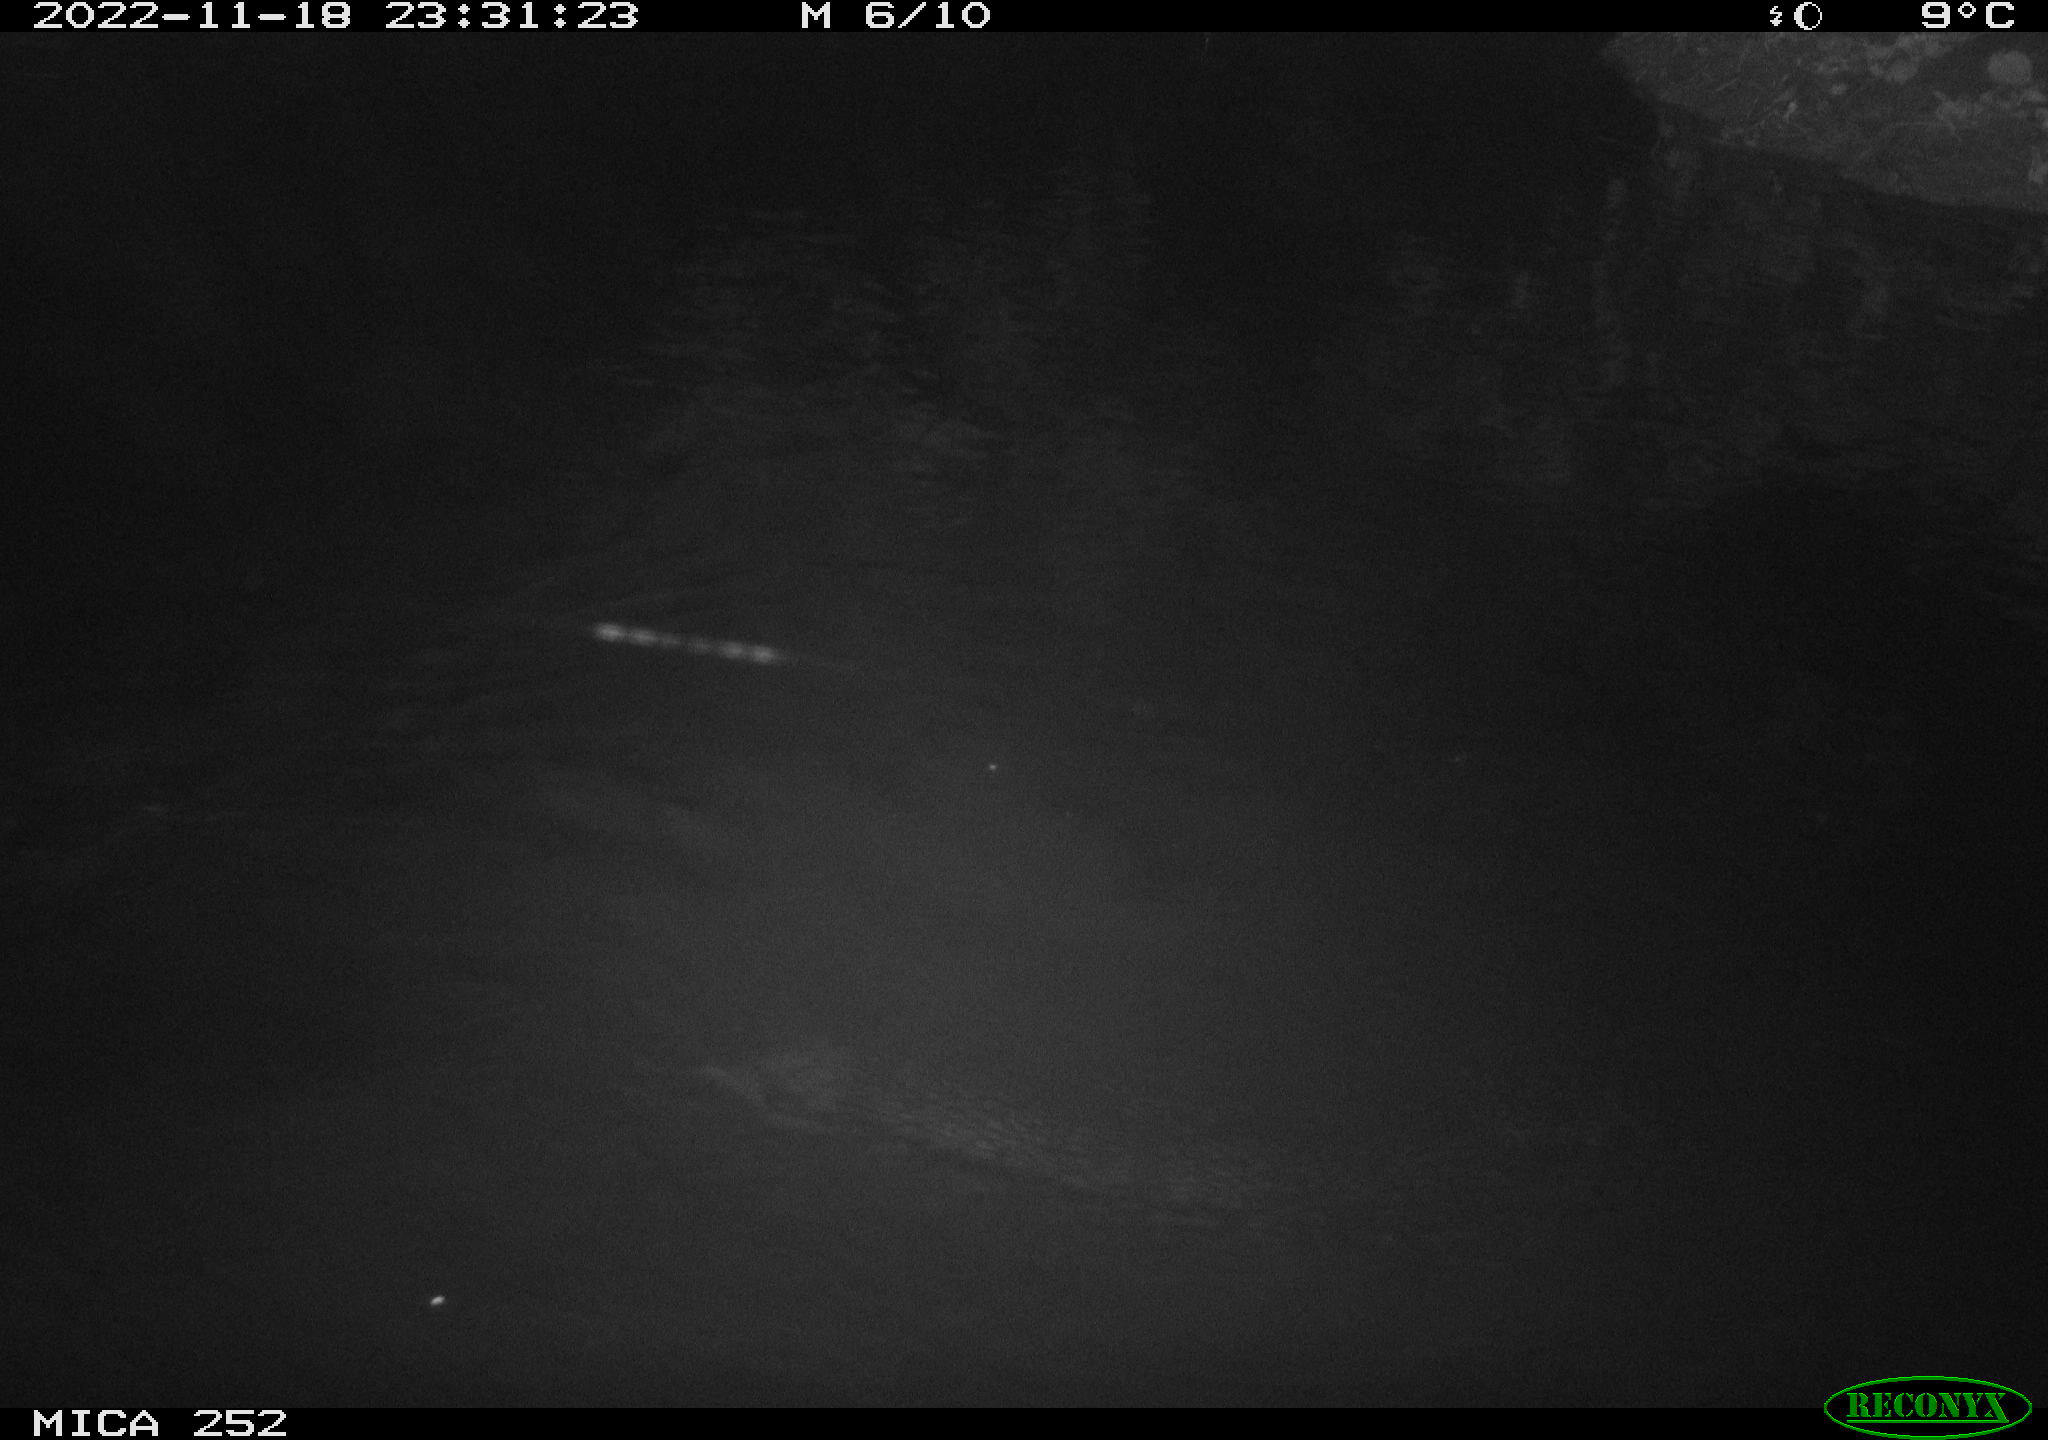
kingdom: Animalia
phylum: Chordata
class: Mammalia
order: Rodentia
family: Castoridae
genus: Castor
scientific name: Castor fiber
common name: Eurasian beaver
